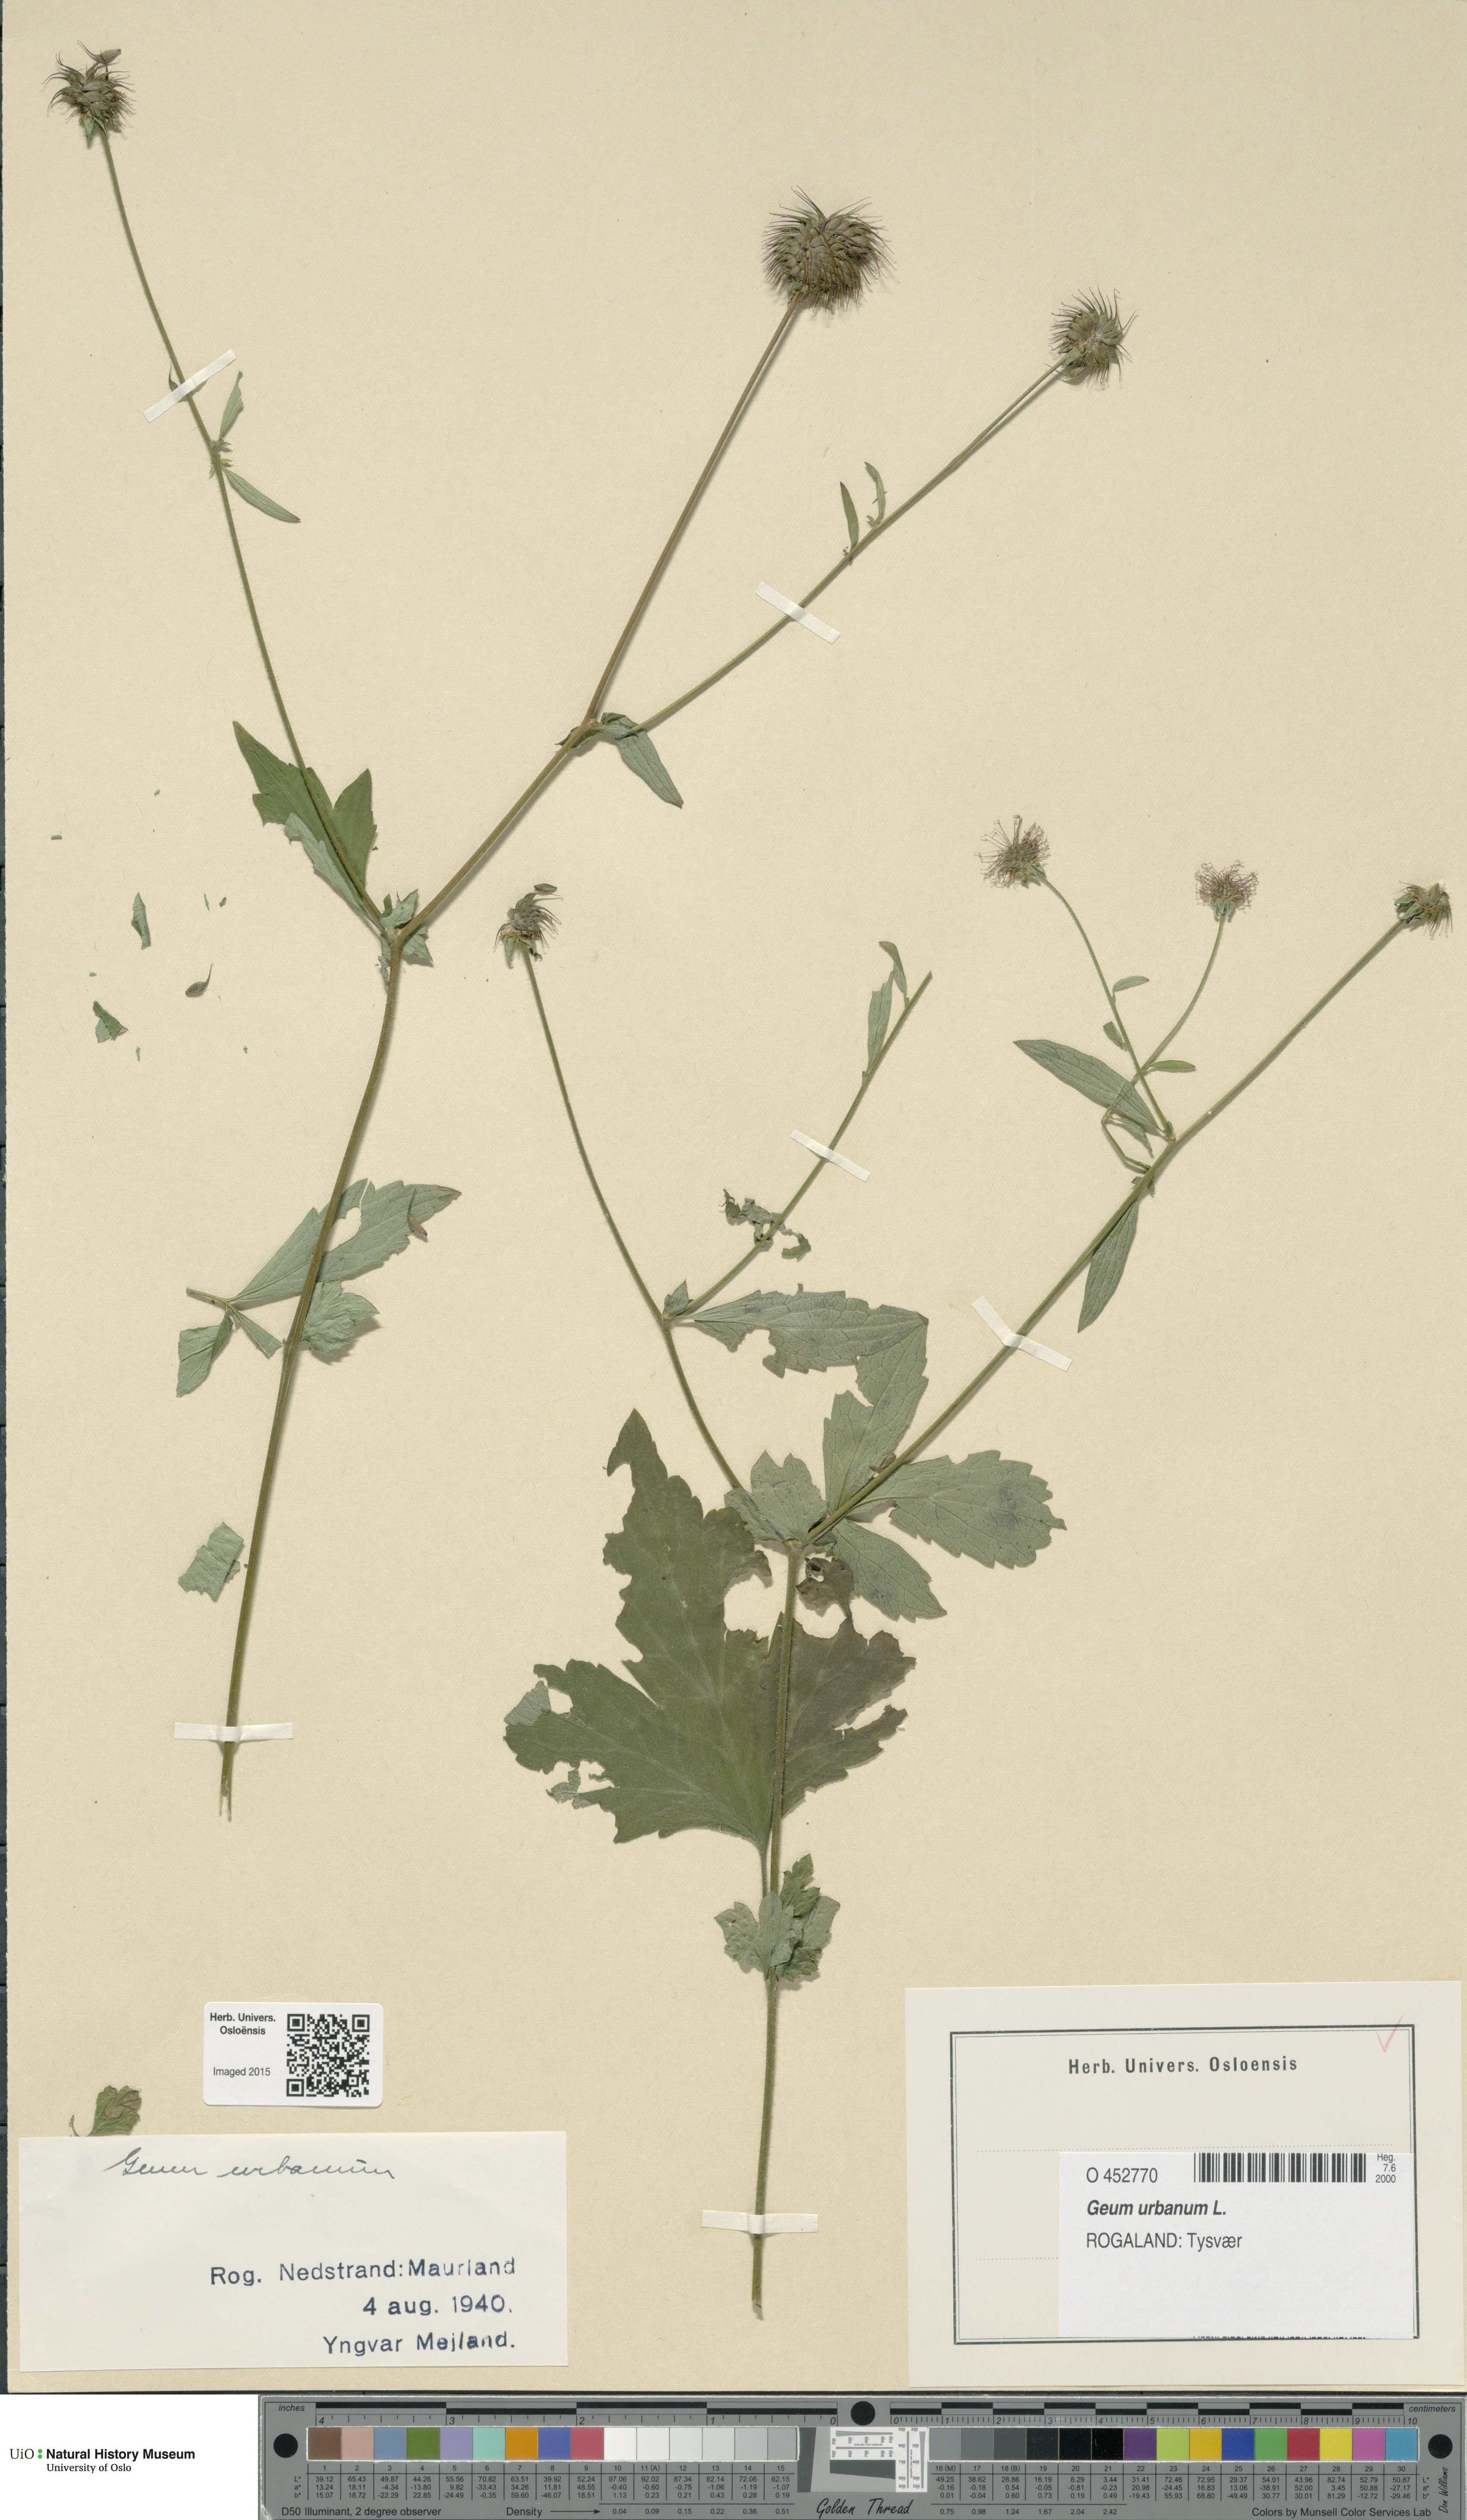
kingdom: Plantae
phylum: Tracheophyta
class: Magnoliopsida
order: Rosales
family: Rosaceae
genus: Geum
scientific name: Geum urbanum
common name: Wood avens
